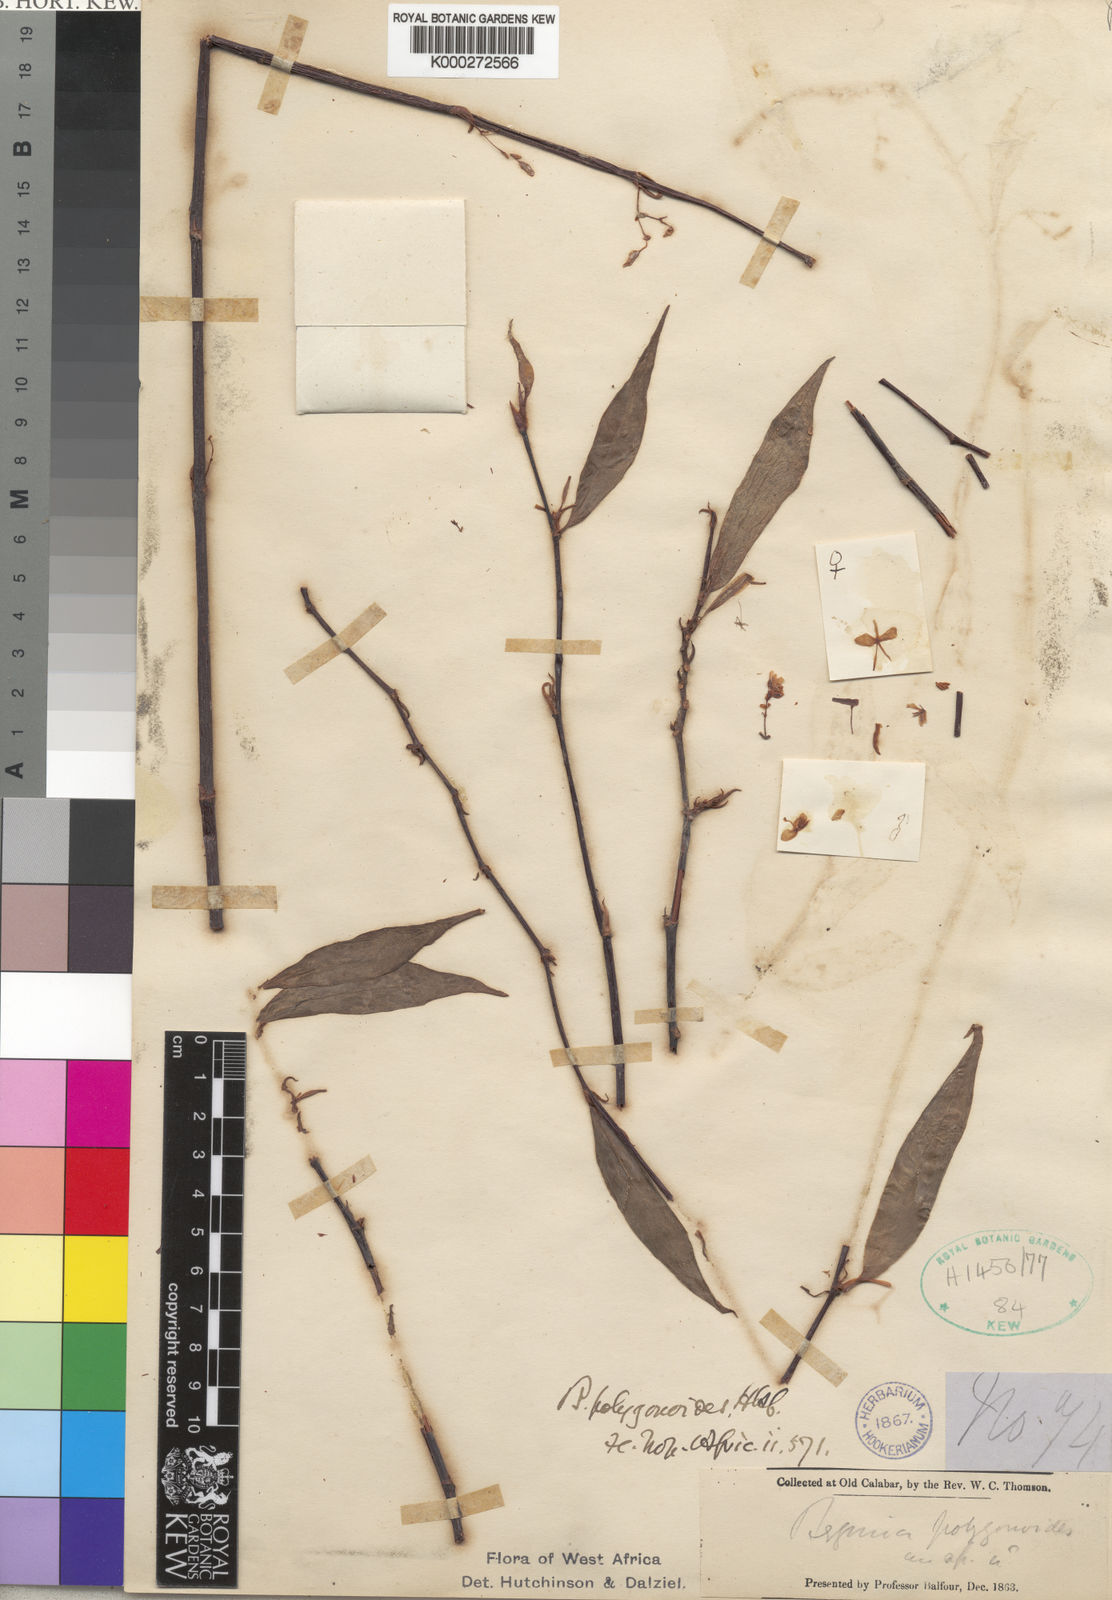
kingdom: Plantae
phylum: Tracheophyta
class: Magnoliopsida
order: Cucurbitales
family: Begoniaceae
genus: Begonia
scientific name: Begonia polygonoides
